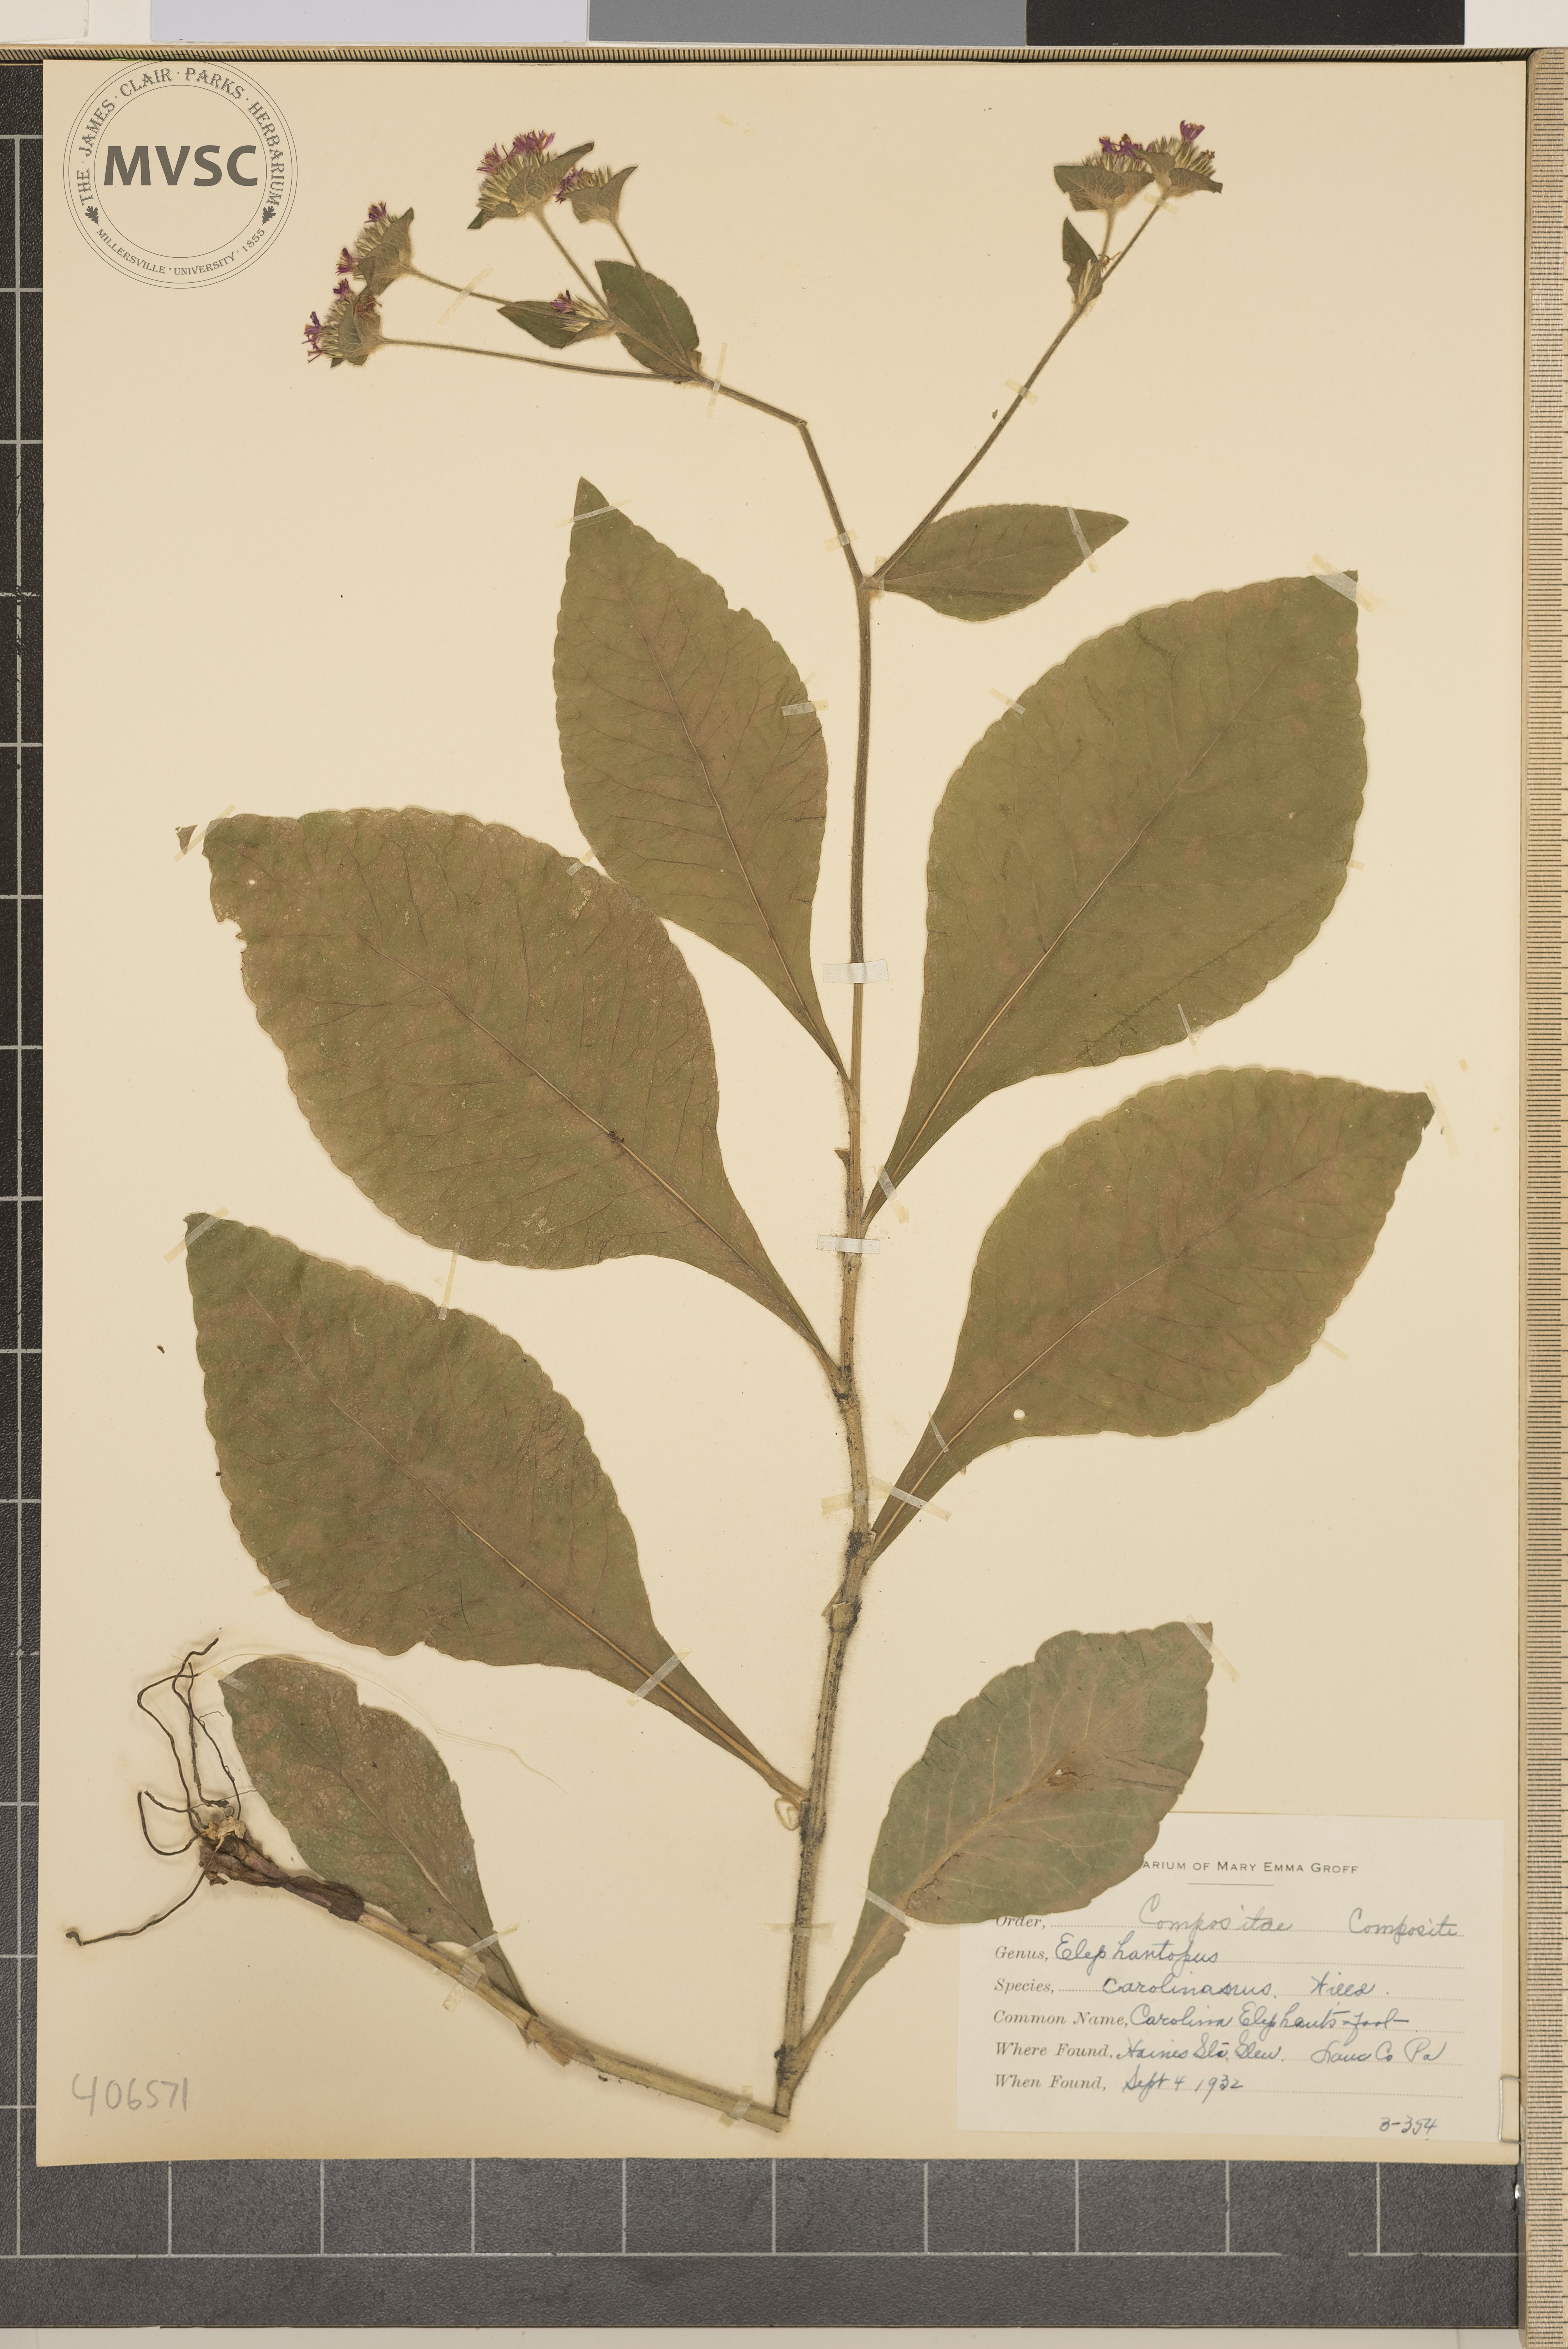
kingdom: Plantae
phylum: Tracheophyta
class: Magnoliopsida
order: Asterales
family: Asteraceae
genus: Elephantopus
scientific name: Elephantopus carolinianus
